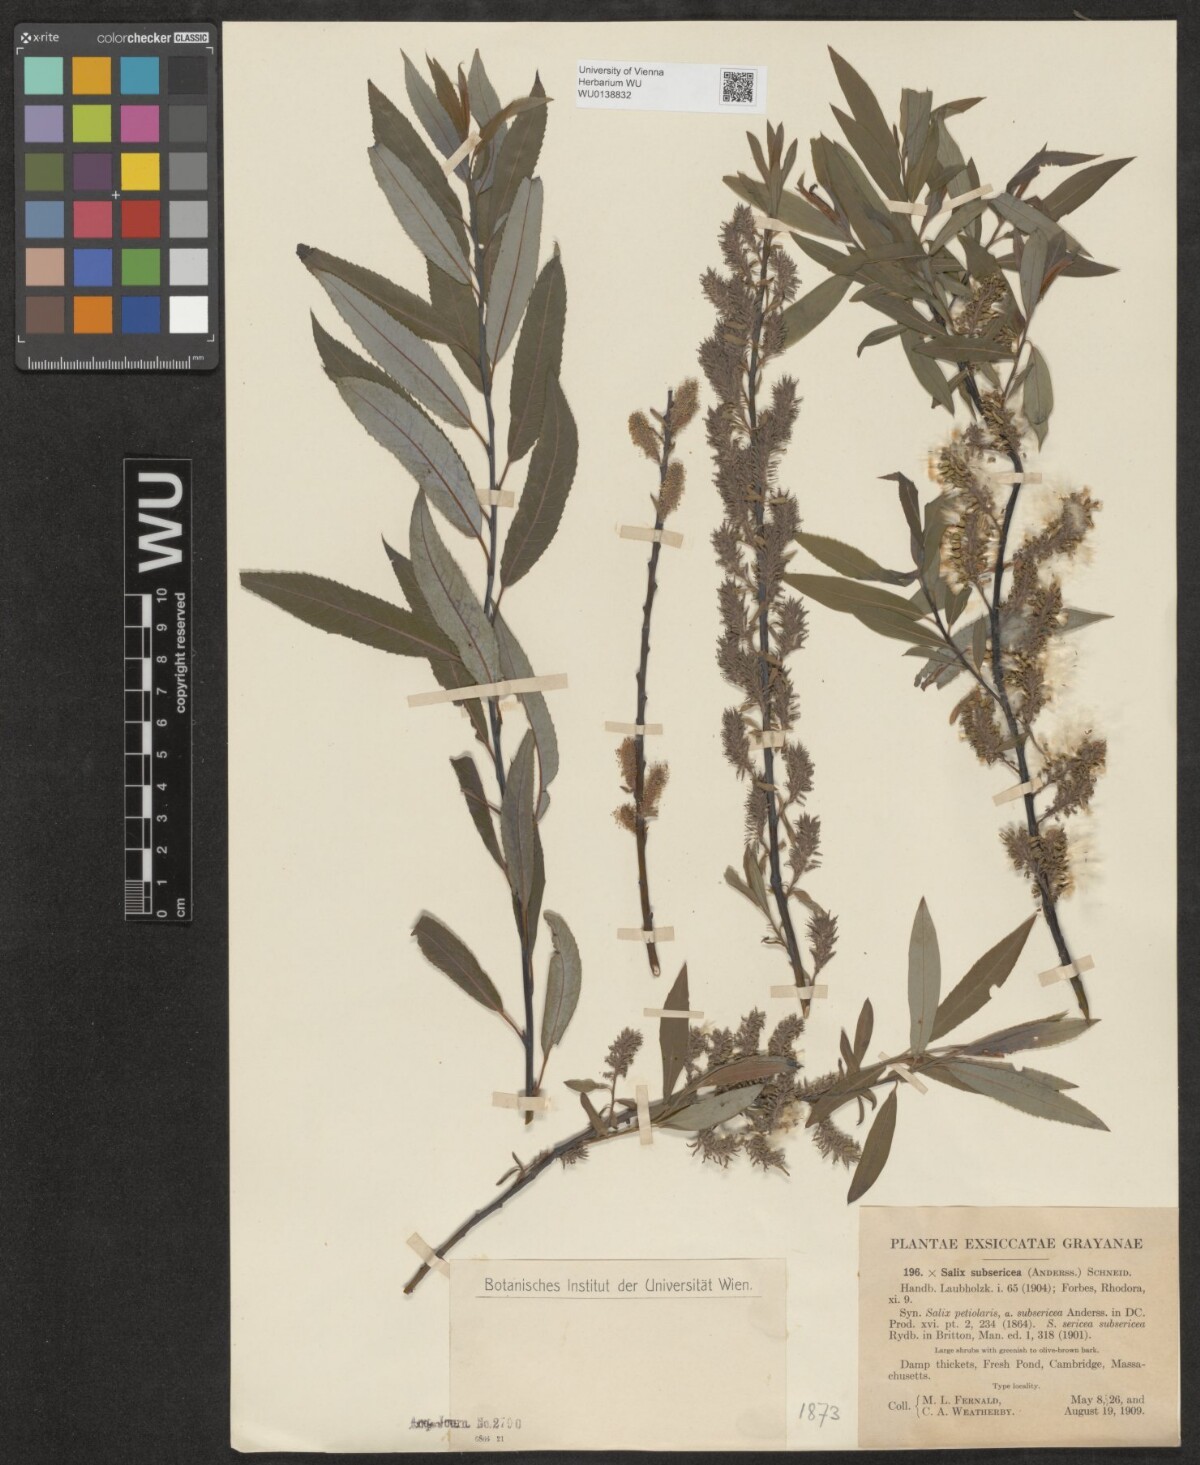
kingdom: Plantae
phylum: Tracheophyta
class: Magnoliopsida
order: Malpighiales
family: Salicaceae
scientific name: Salicaceae
